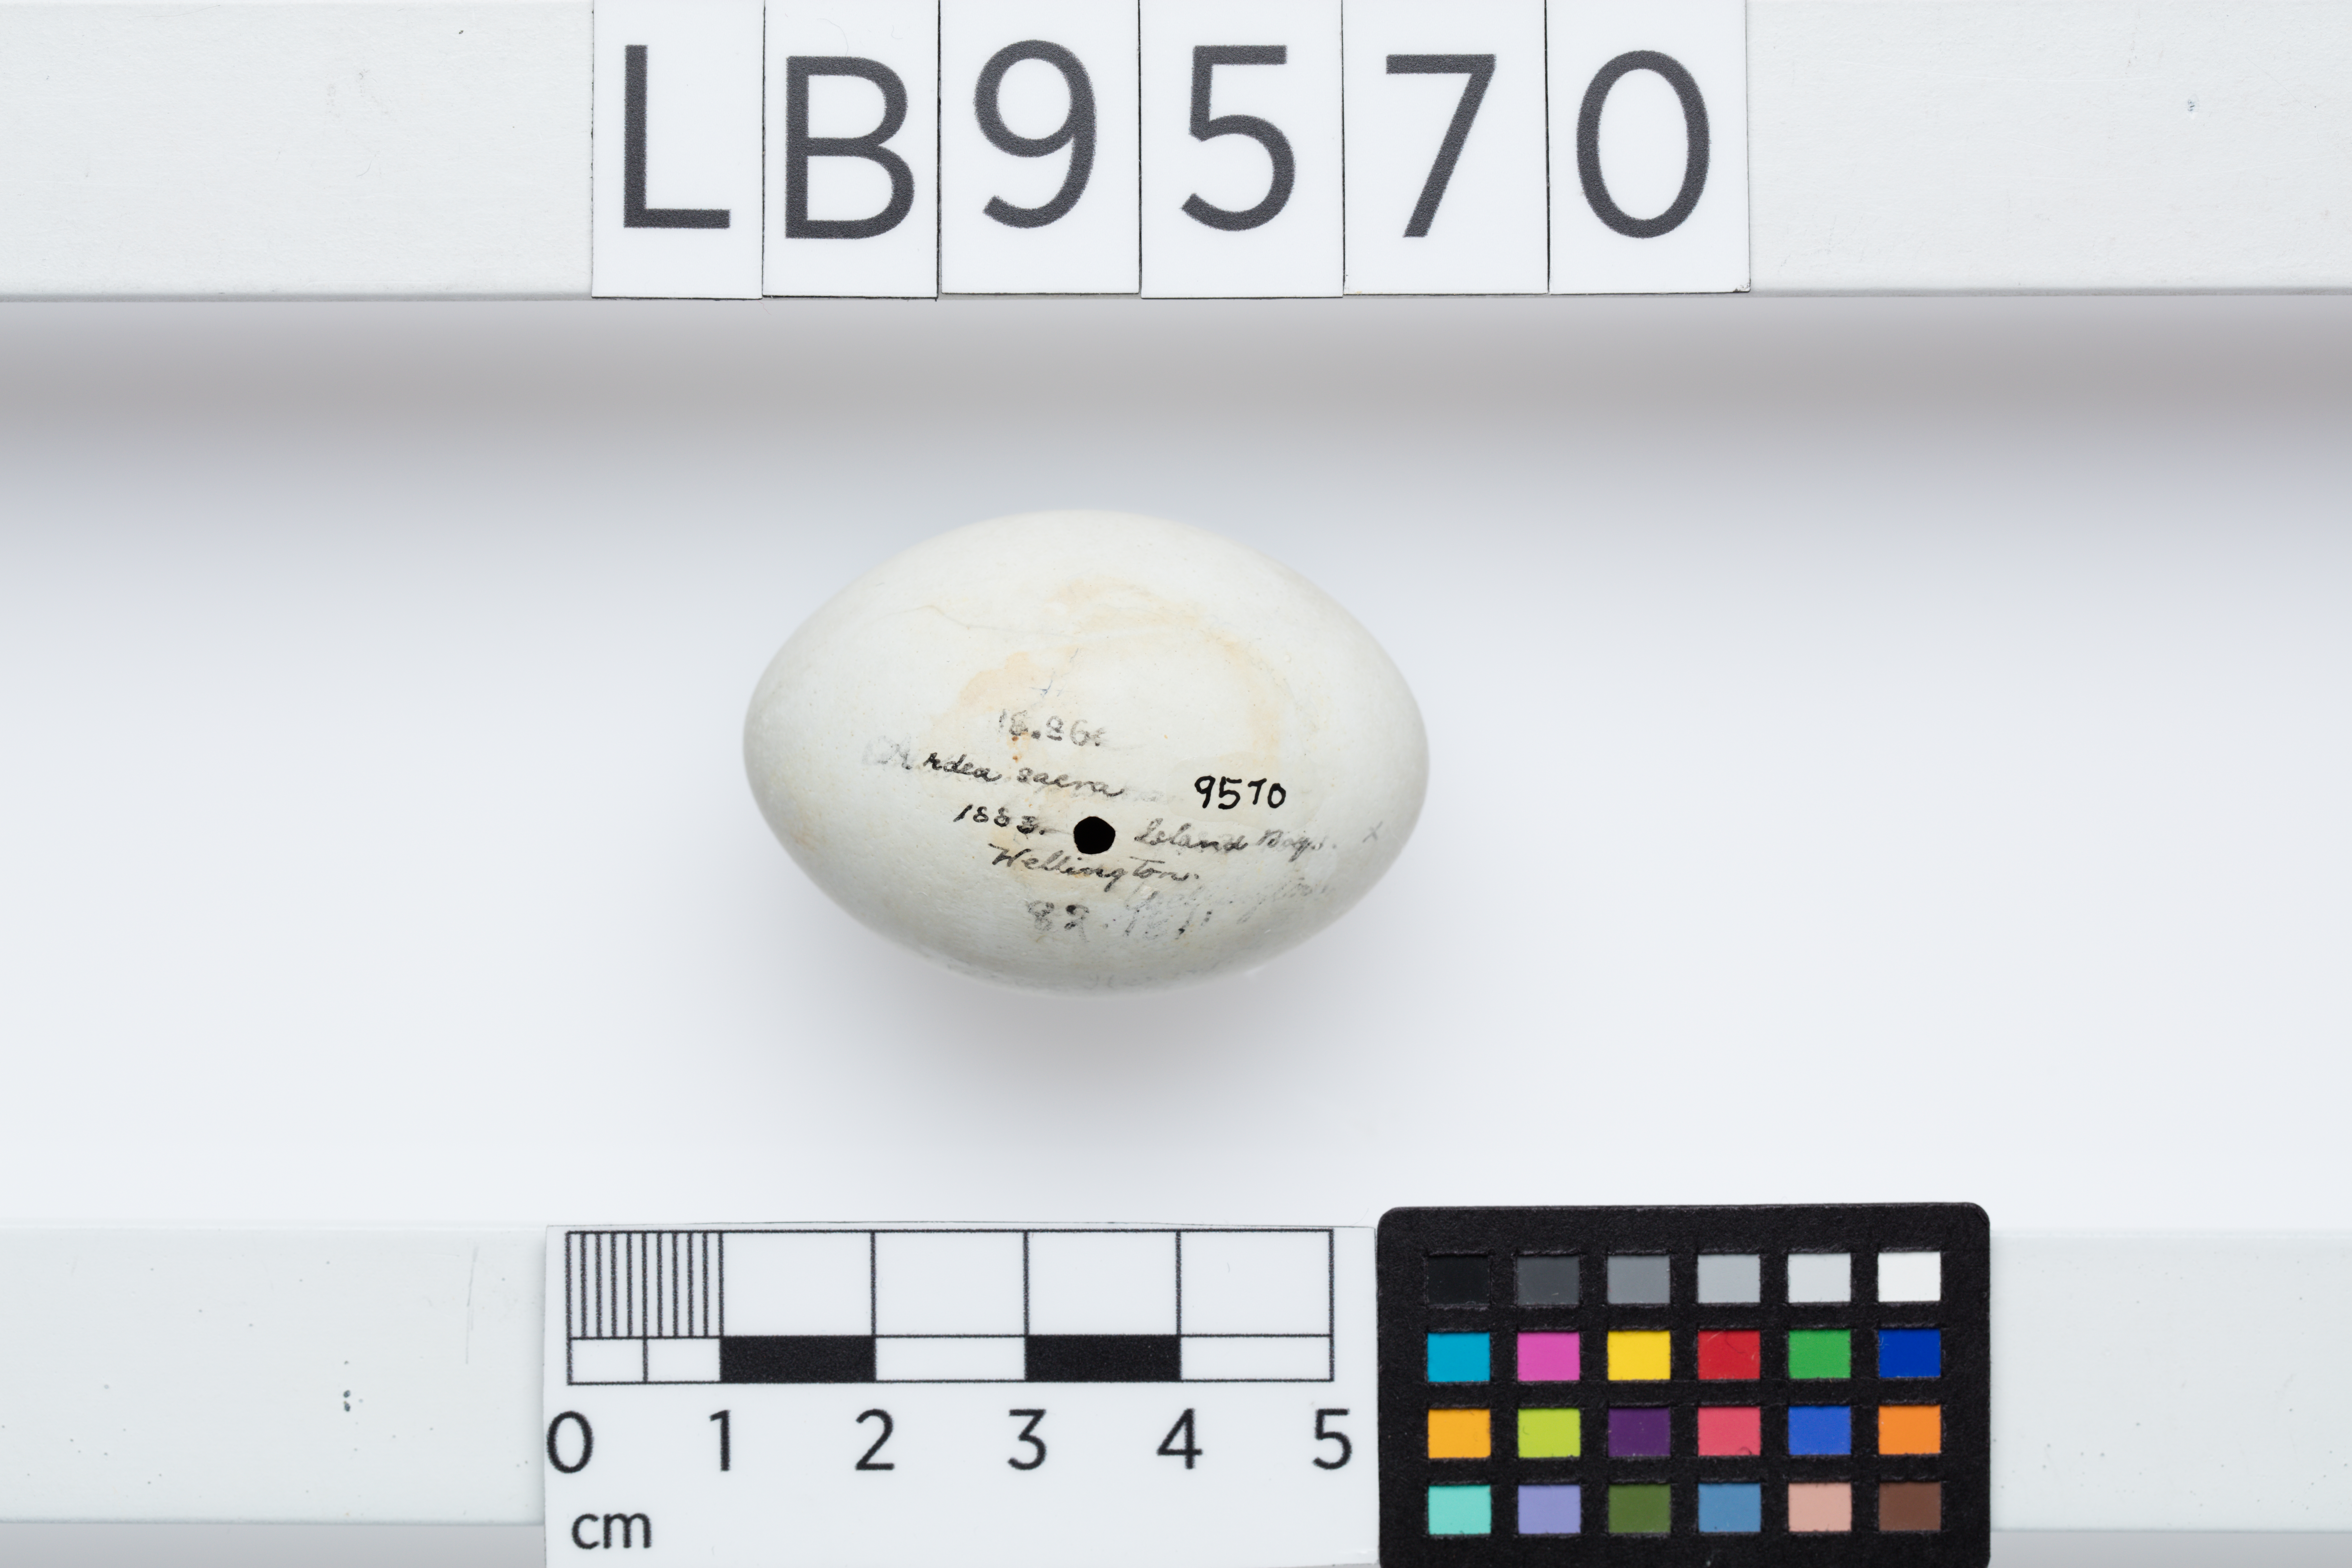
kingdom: Animalia
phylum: Chordata
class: Aves
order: Pelecaniformes
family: Ardeidae
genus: Egretta
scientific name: Egretta sacra
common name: Pacific reef heron
